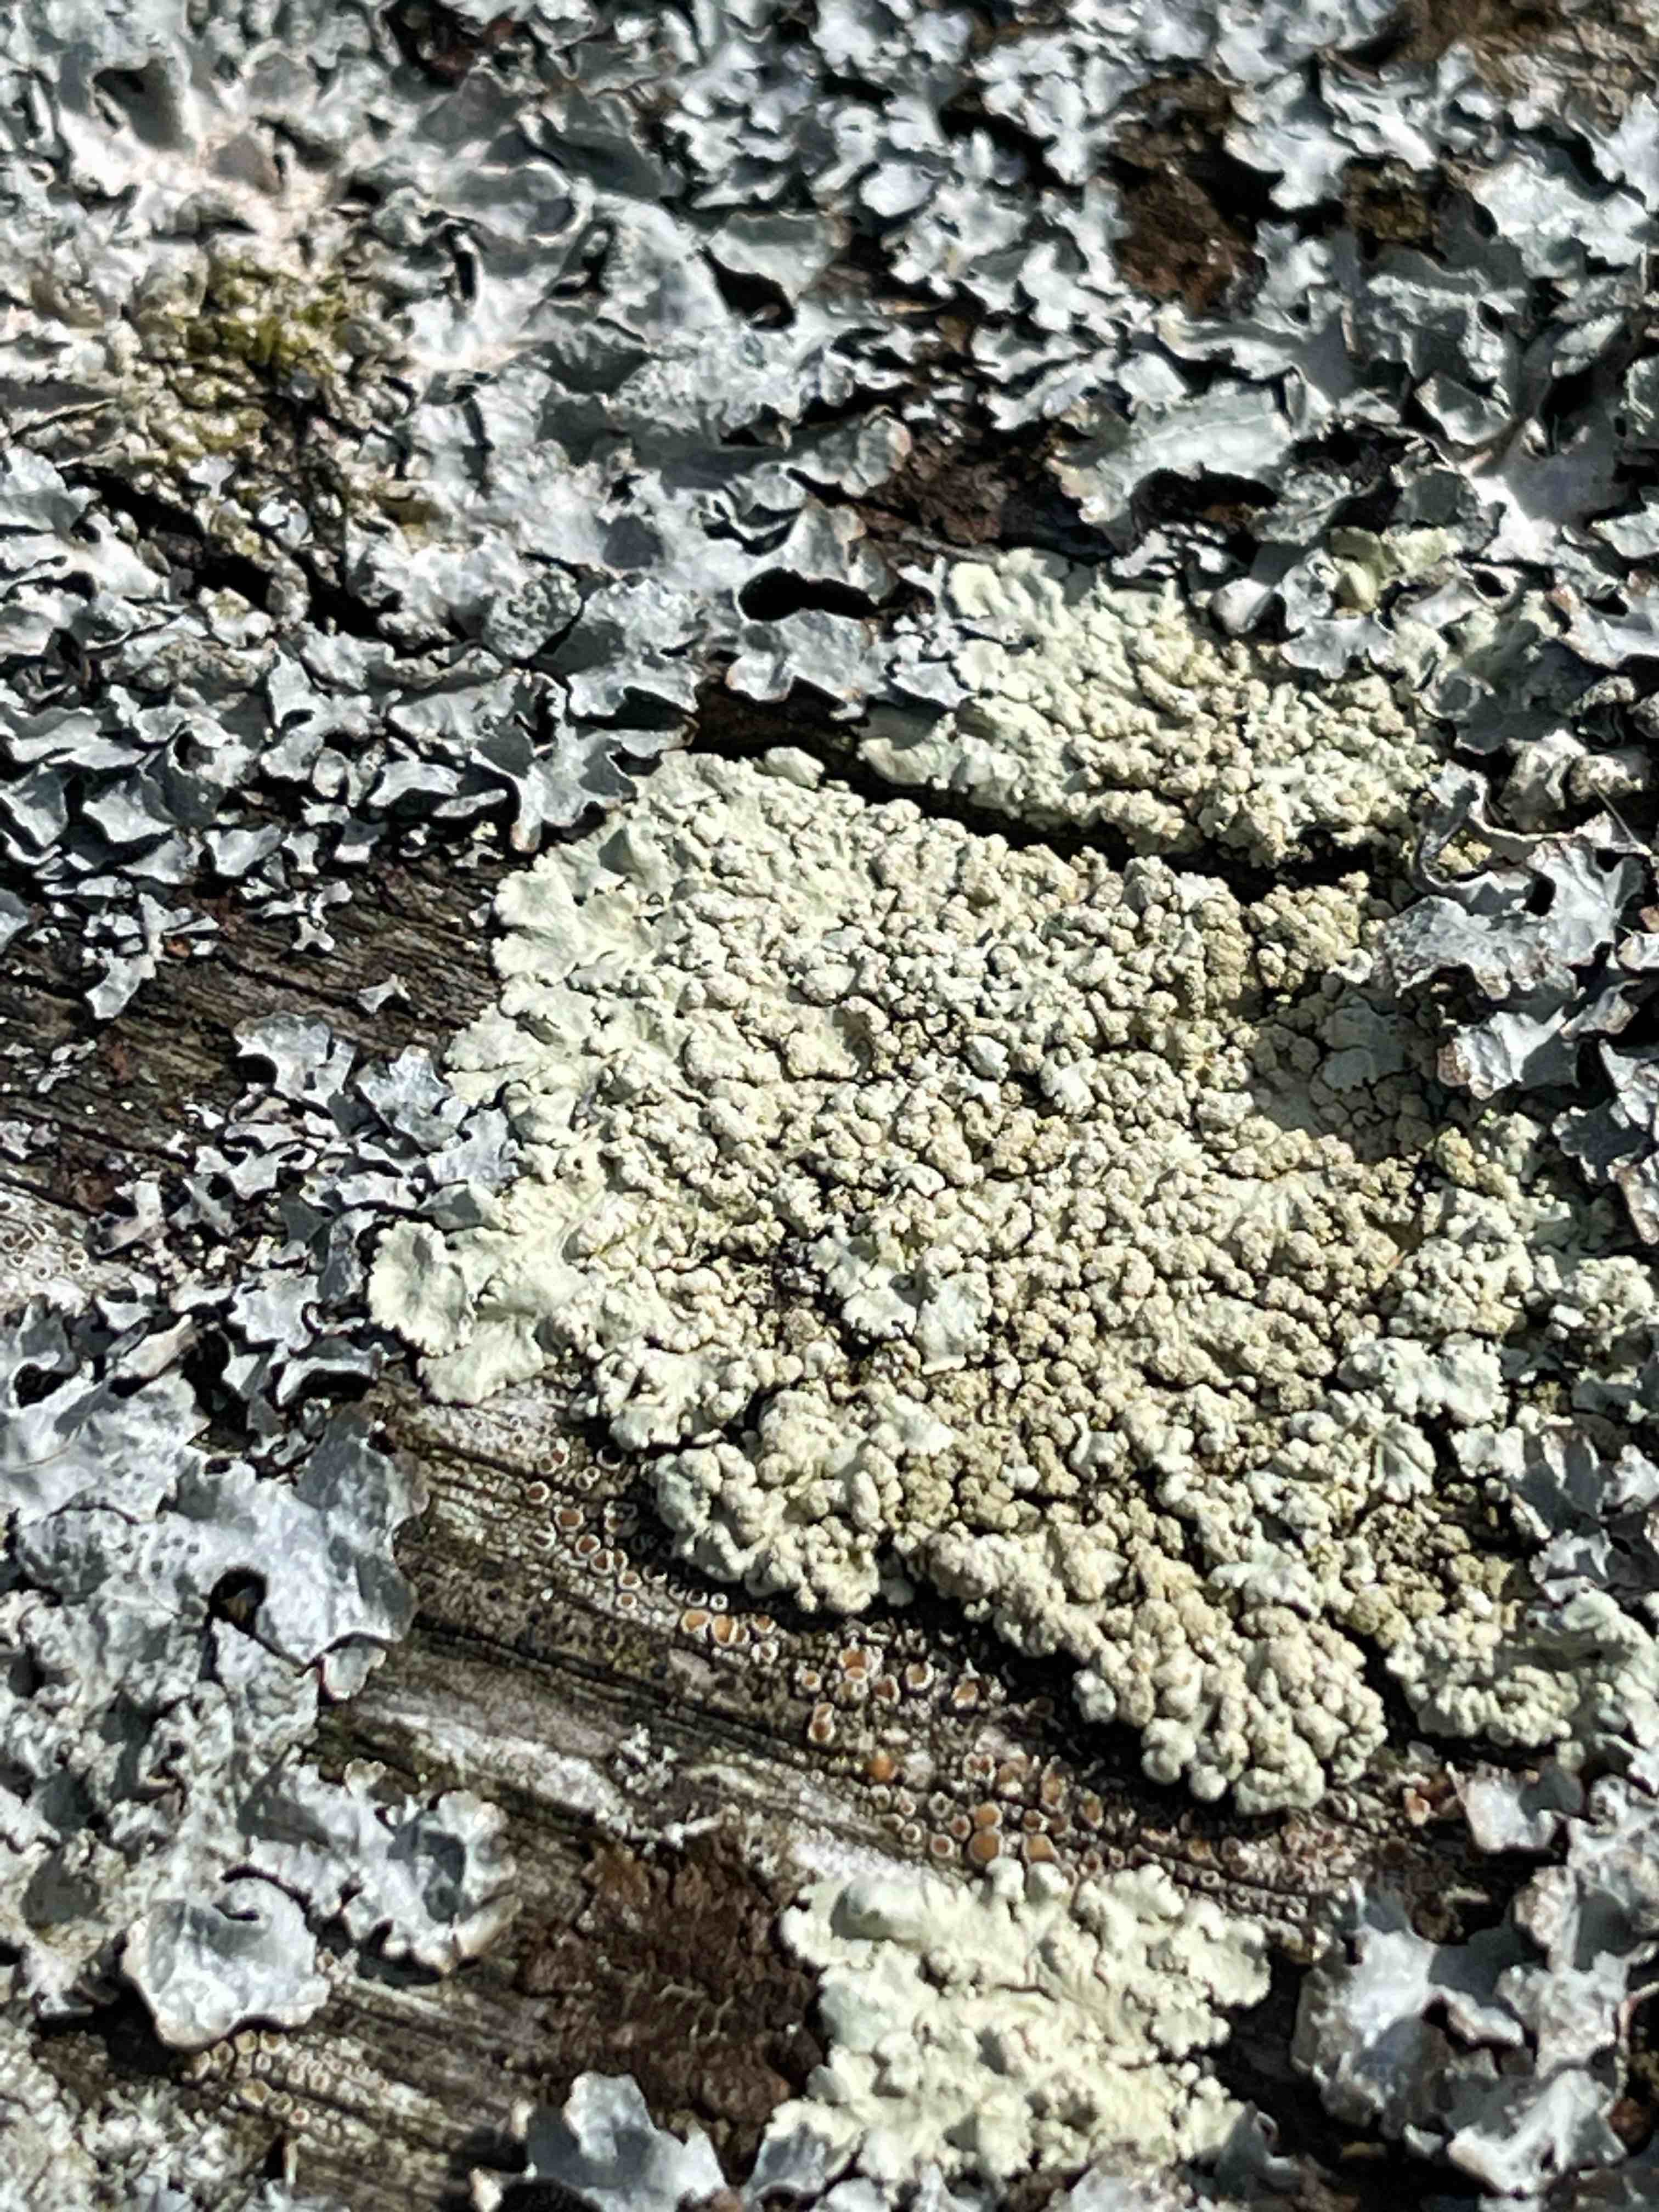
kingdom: Fungi
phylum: Ascomycota
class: Lecanoromycetes
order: Lecanorales
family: Parmeliaceae
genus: Parmeliopsis
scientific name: Parmeliopsis ambigua
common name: gul stolpelav
